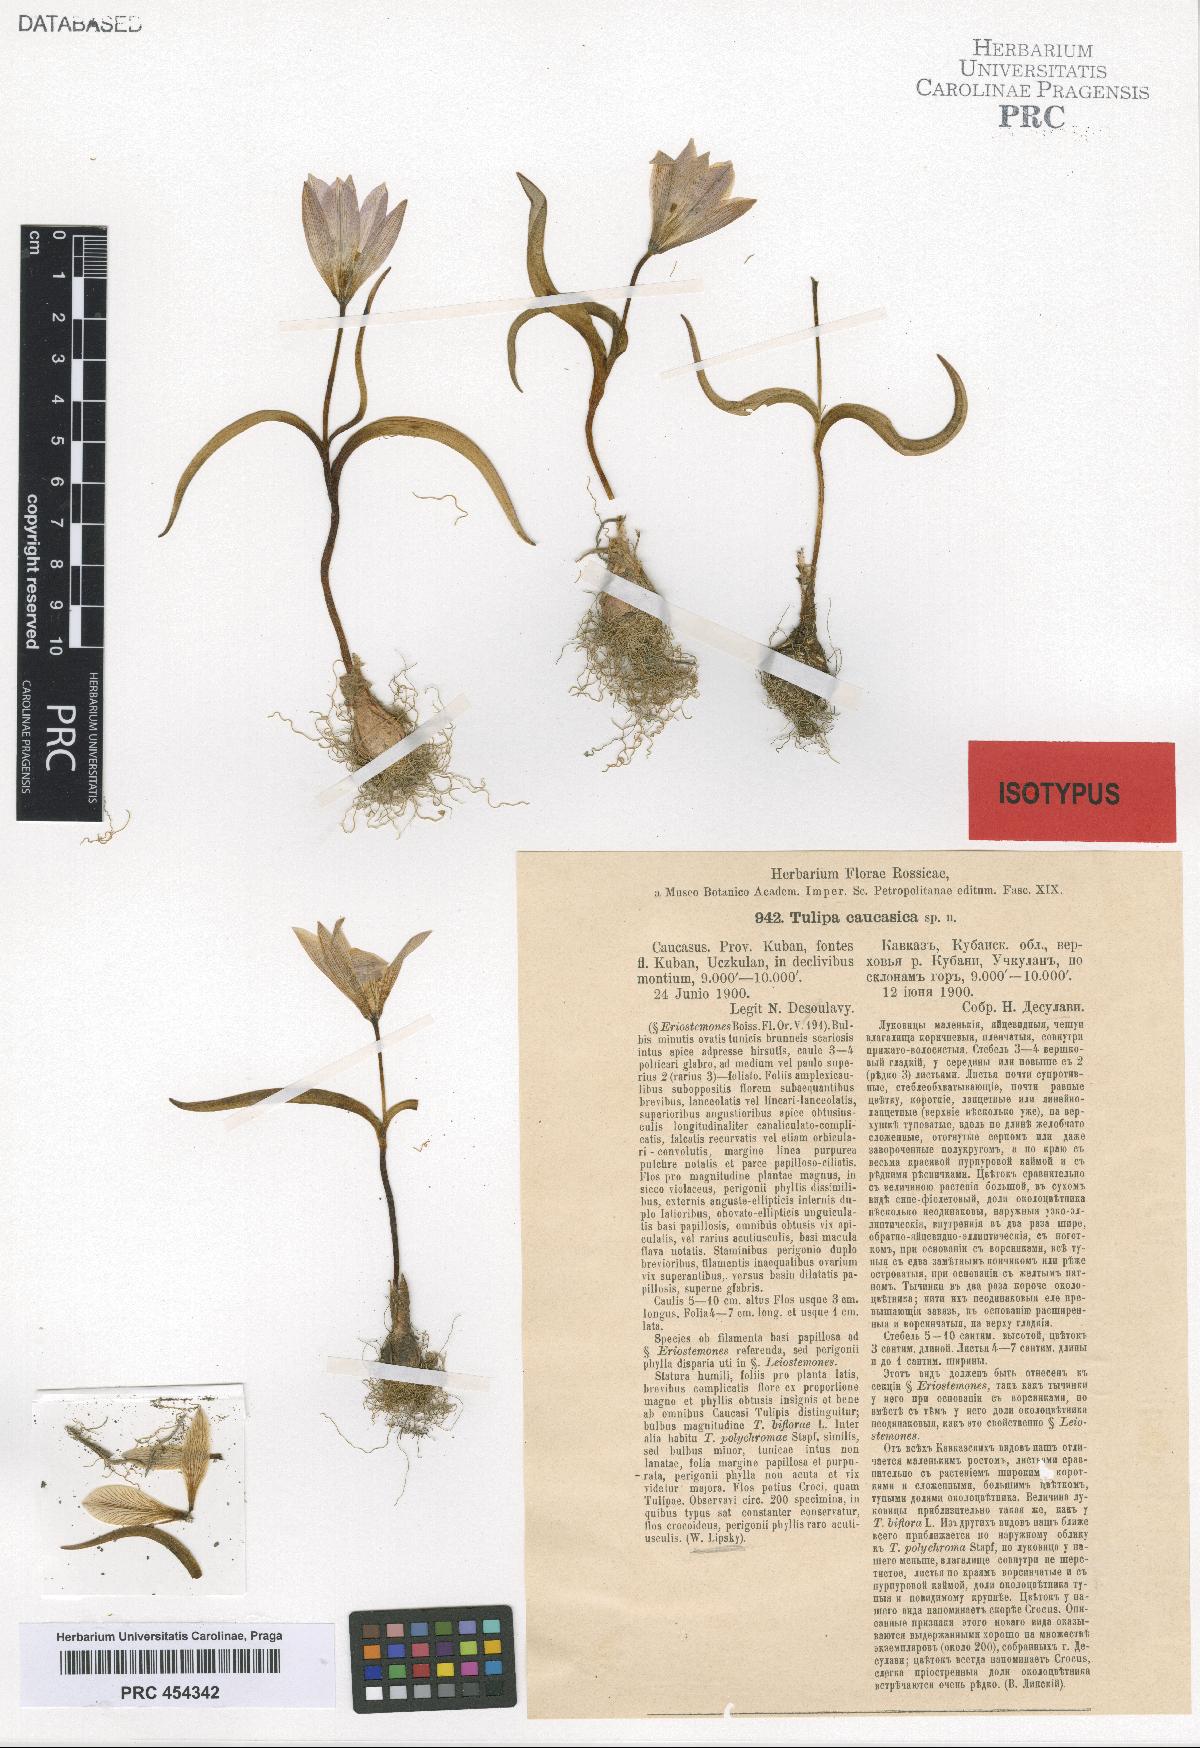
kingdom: Plantae
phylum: Tracheophyta
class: Liliopsida
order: Liliales
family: Liliaceae
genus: Tulipa
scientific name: Tulipa humilis
